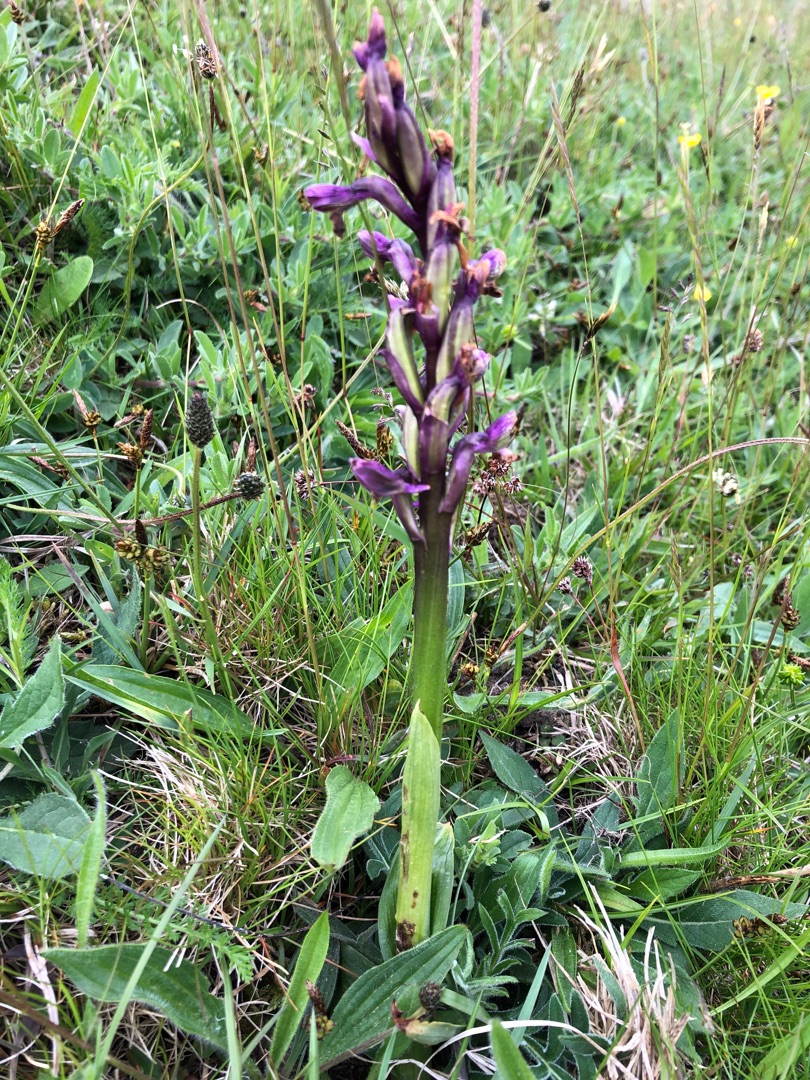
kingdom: Plantae
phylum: Tracheophyta
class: Liliopsida
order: Asparagales
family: Orchidaceae
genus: Anacamptis
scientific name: Anacamptis morio
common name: Salepgøgeurt
